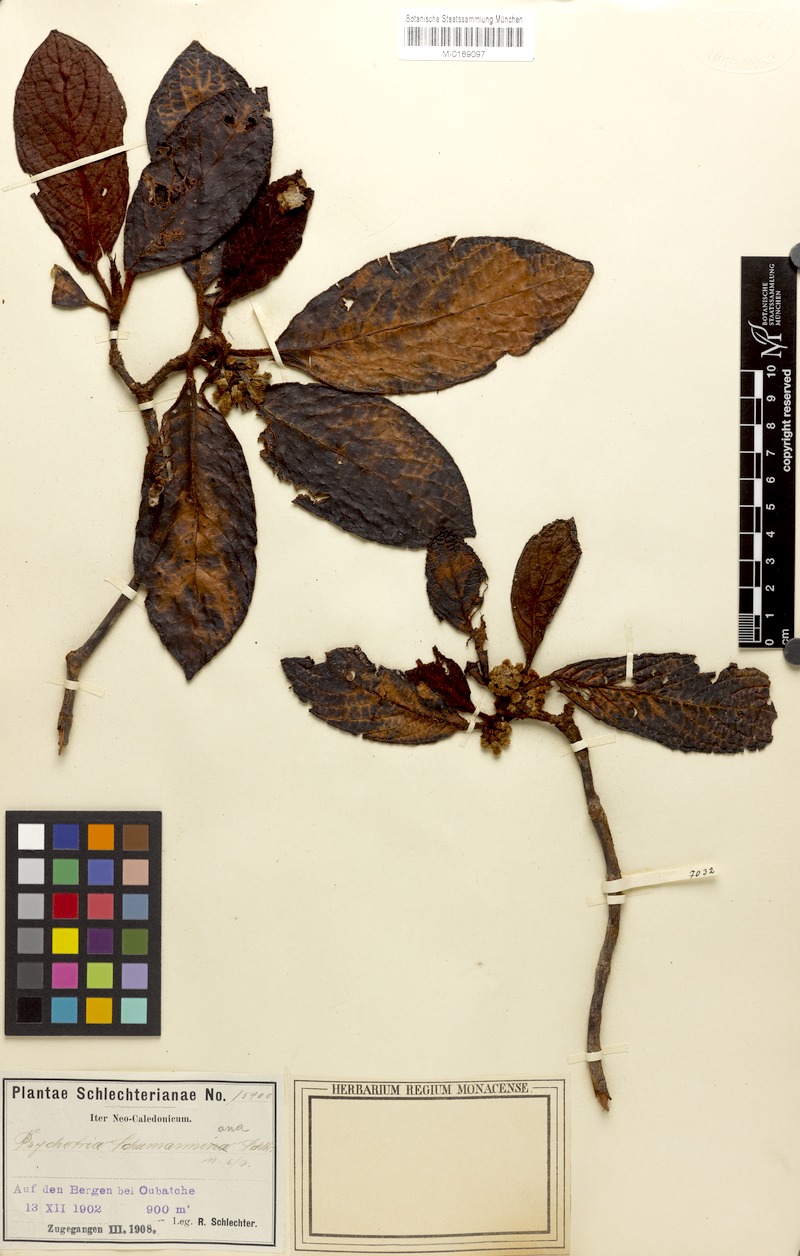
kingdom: Plantae
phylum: Tracheophyta
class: Magnoliopsida
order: Gentianales
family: Rubiaceae
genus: Psychotria
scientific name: Psychotria schumanniana
